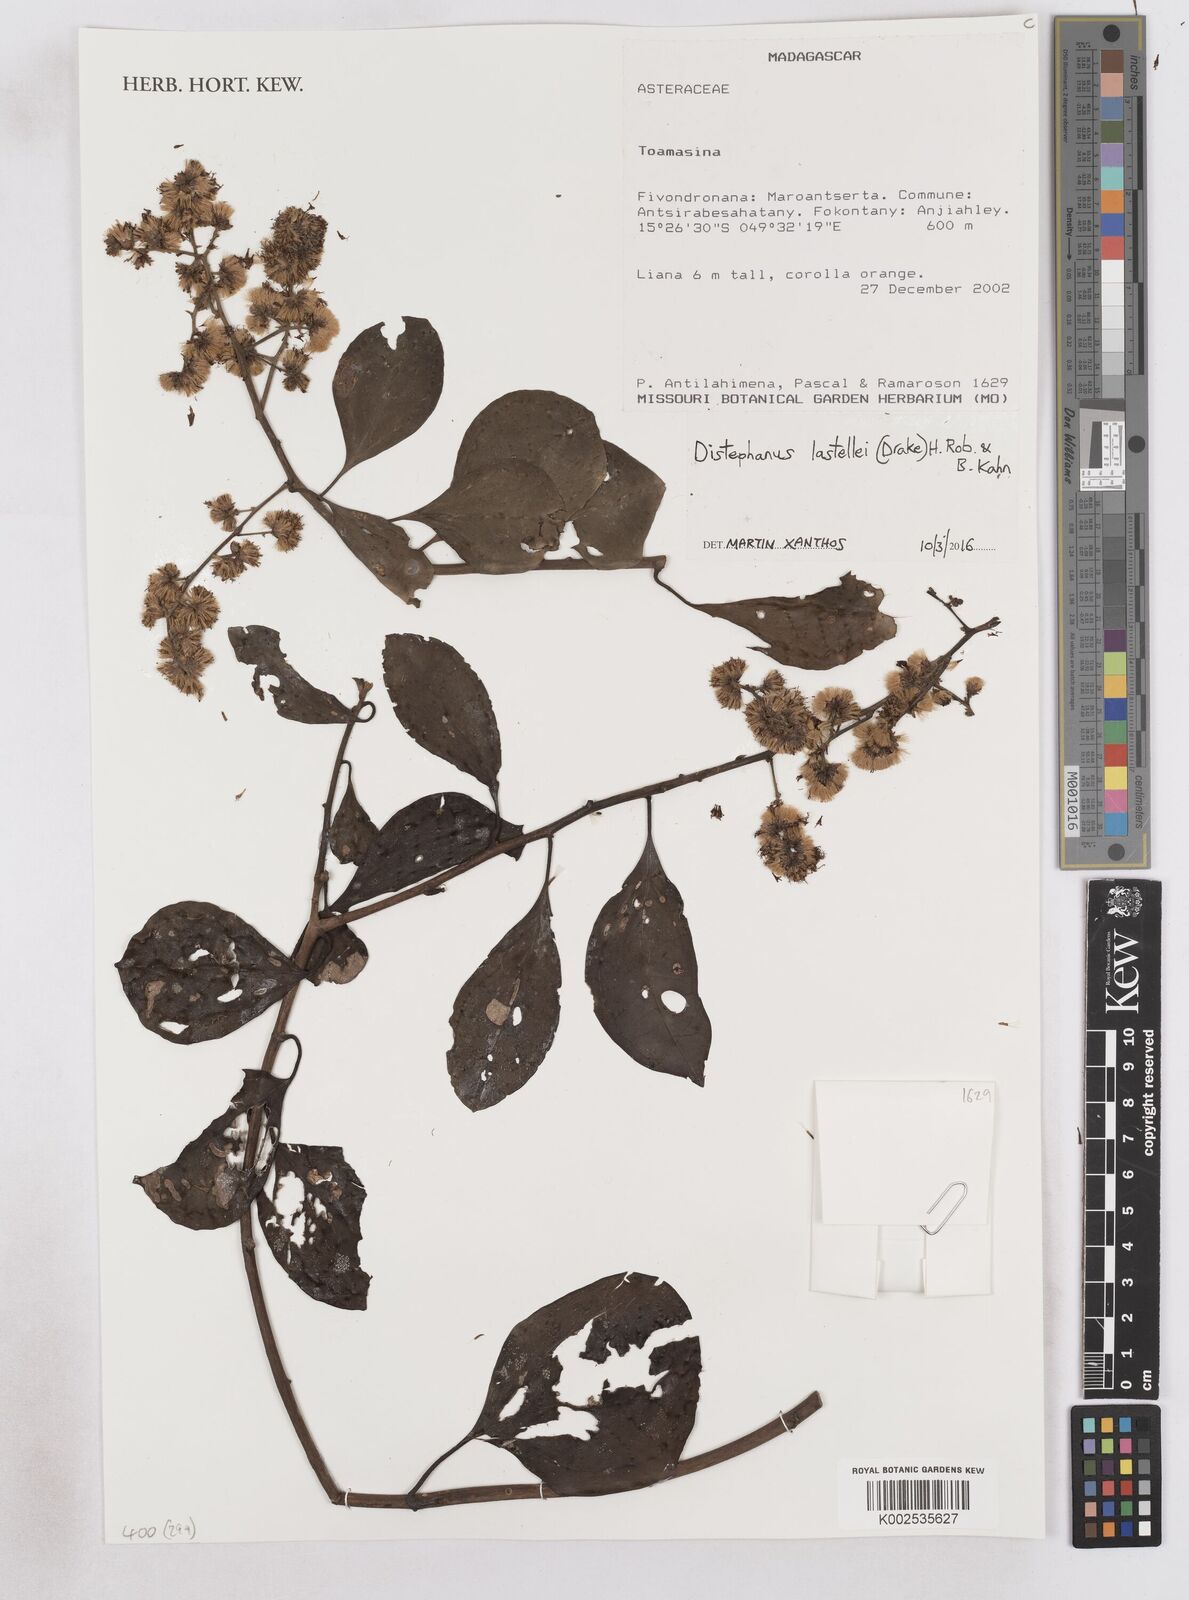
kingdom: Plantae
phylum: Tracheophyta
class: Magnoliopsida
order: Asterales
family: Asteraceae
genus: Distephanus
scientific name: Distephanus lastellei
